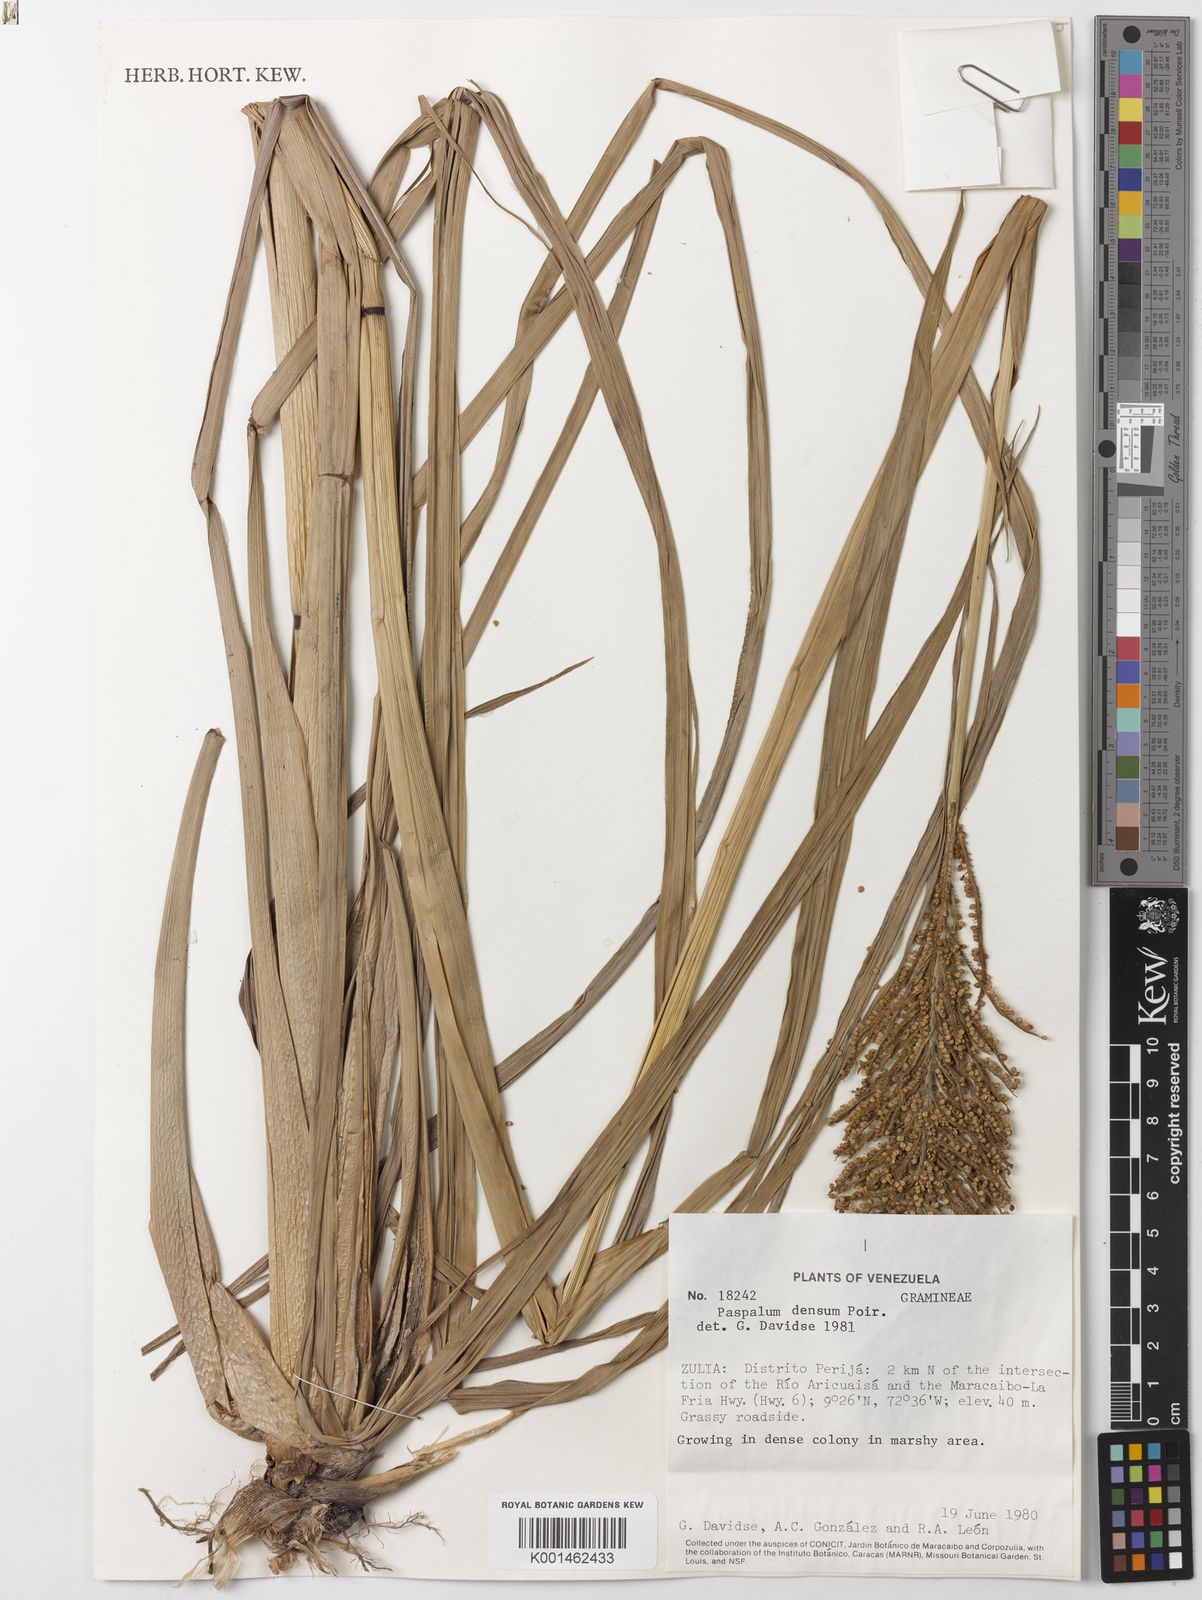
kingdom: Plantae
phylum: Tracheophyta
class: Liliopsida
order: Poales
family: Poaceae
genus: Paspalum
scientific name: Paspalum densum
